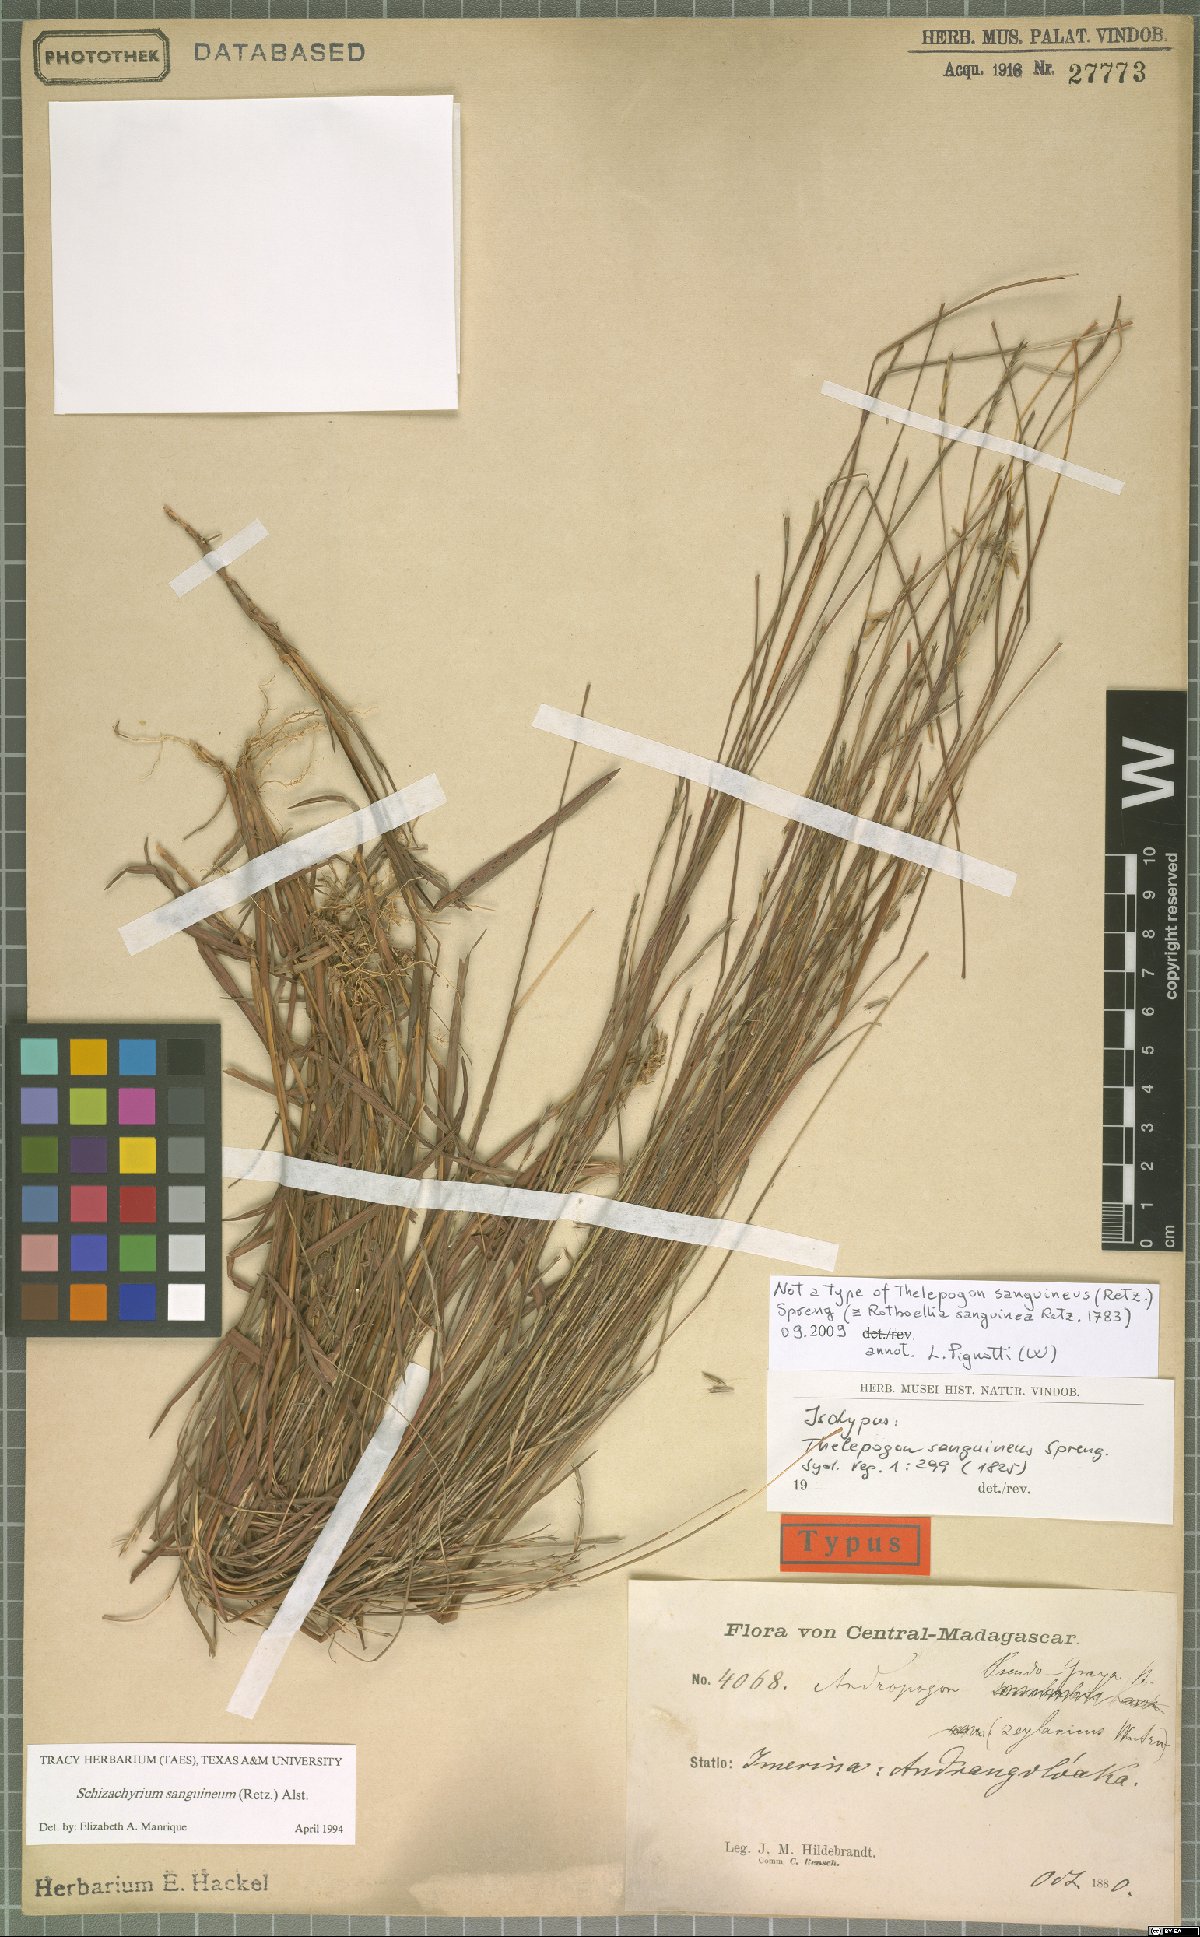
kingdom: Plantae
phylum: Tracheophyta
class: Liliopsida
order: Poales
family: Poaceae
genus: Schizachyrium
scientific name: Schizachyrium sanguineum
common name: Crimson bluestem
